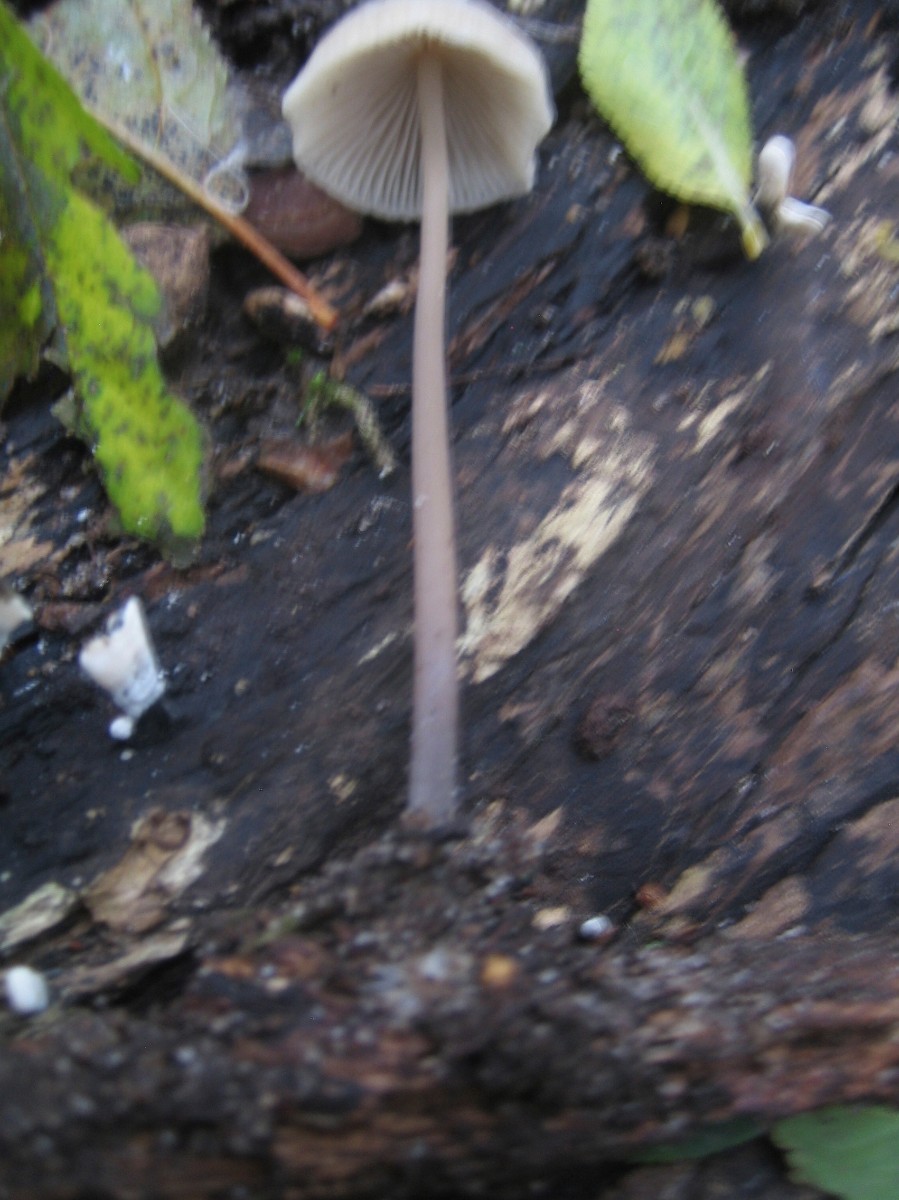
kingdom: Fungi
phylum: Basidiomycota
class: Agaricomycetes
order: Agaricales
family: Mycenaceae
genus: Mycena
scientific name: Mycena filopes
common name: jod-huesvamp
